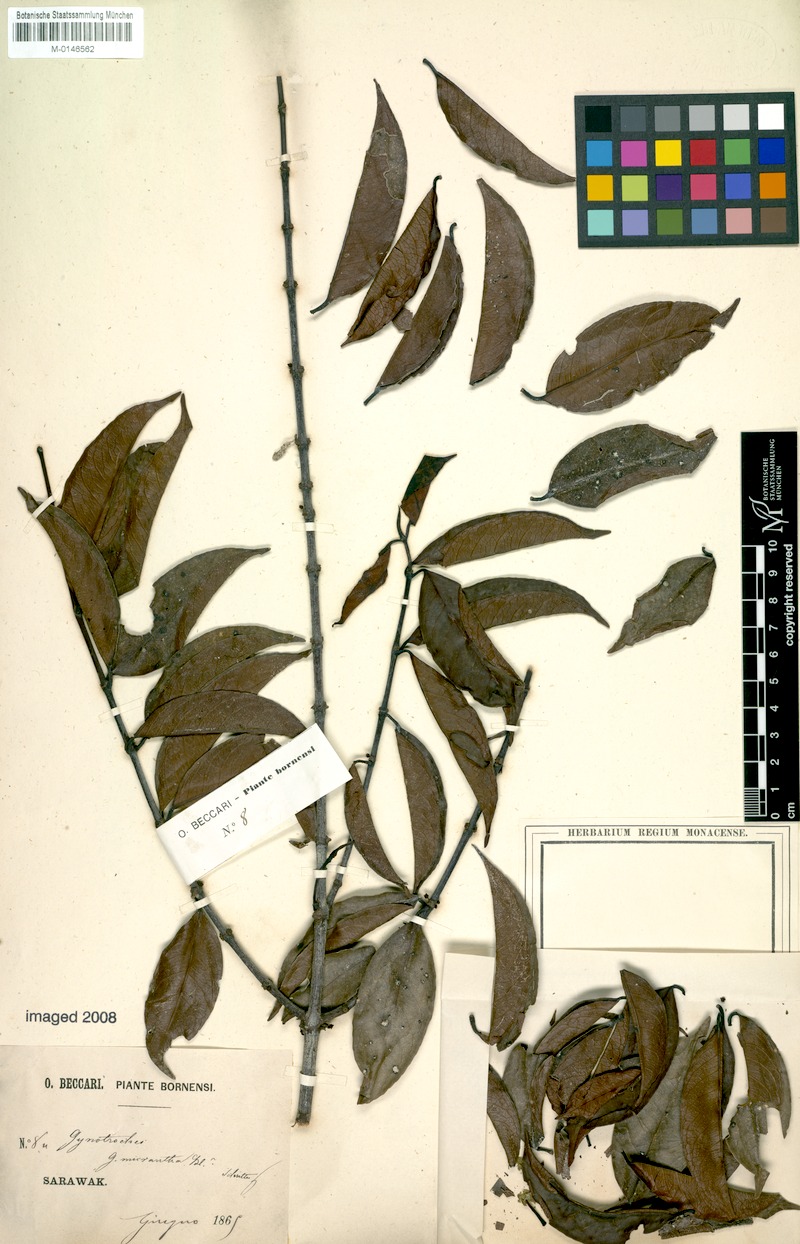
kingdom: Plantae
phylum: Tracheophyta
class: Magnoliopsida
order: Malpighiales
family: Rhizophoraceae
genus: Gynotroches
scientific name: Gynotroches axillaris
